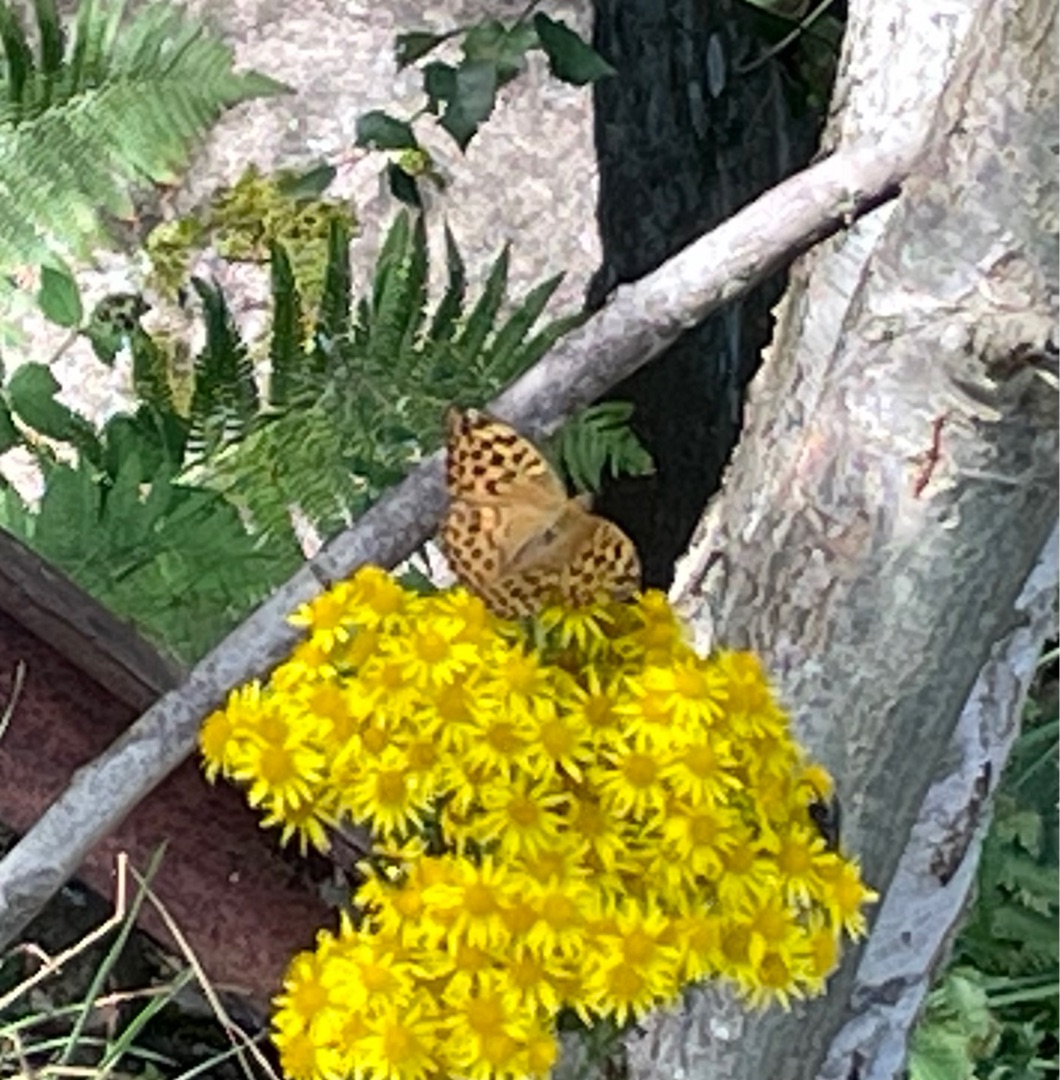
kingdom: Animalia
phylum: Arthropoda
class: Insecta
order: Lepidoptera
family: Nymphalidae
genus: Argynnis
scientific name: Argynnis paphia
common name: Kejserkåbe
